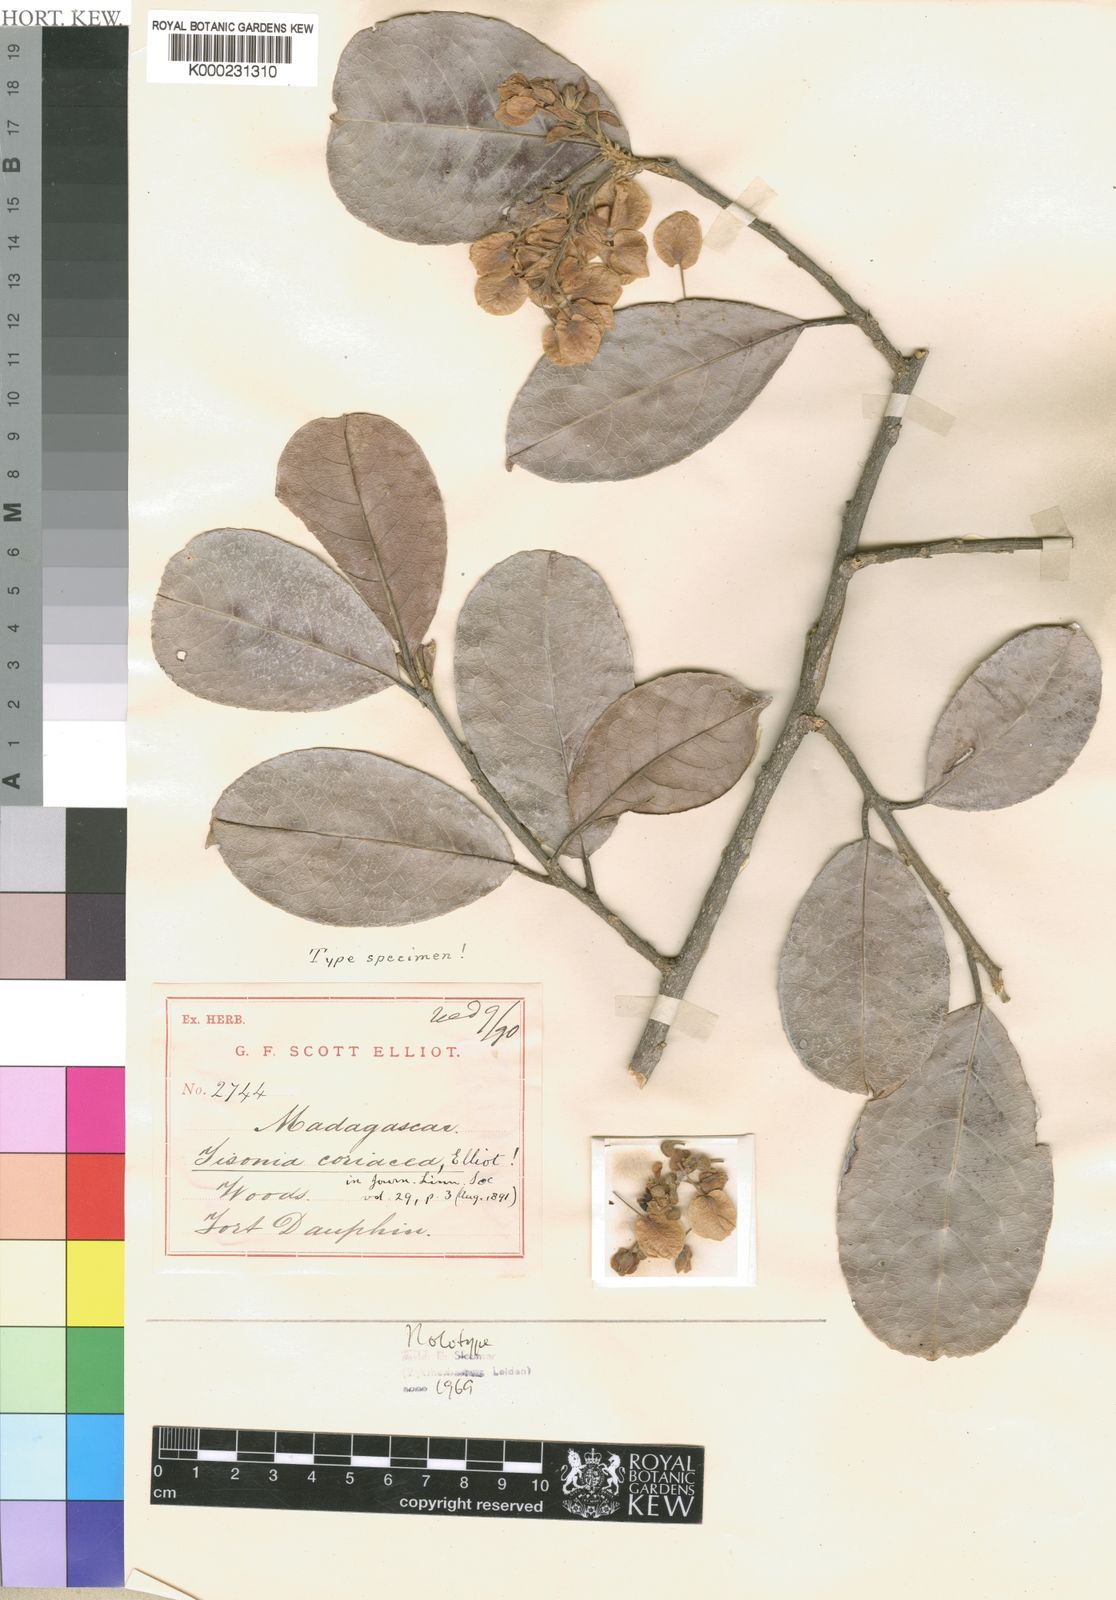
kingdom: Plantae
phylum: Tracheophyta
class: Magnoliopsida
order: Malpighiales
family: Salicaceae
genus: Tisonia
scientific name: Tisonia coriacea
